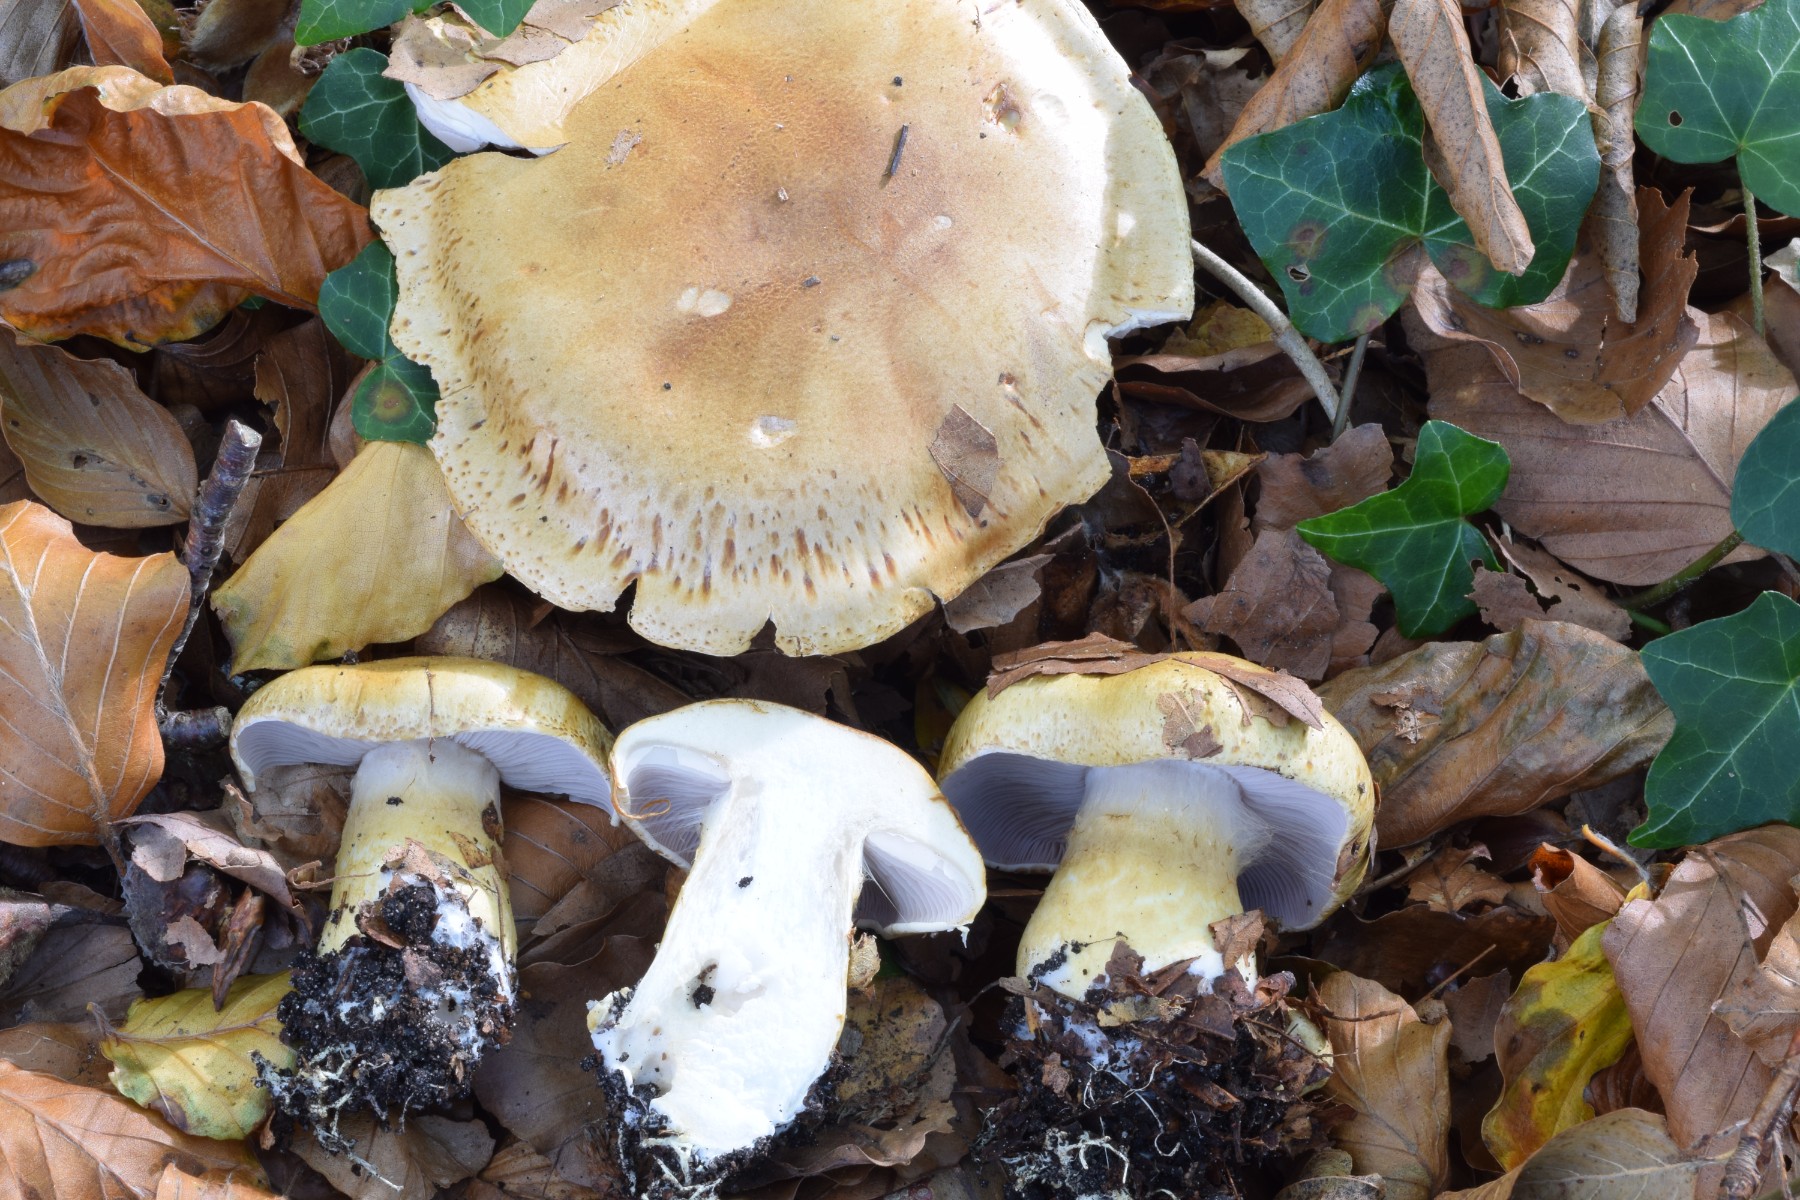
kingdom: Fungi
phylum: Basidiomycota
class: Agaricomycetes
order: Agaricales
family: Cortinariaceae
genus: Phlegmacium
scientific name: Phlegmacium cliduchus
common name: majs-slørhat
